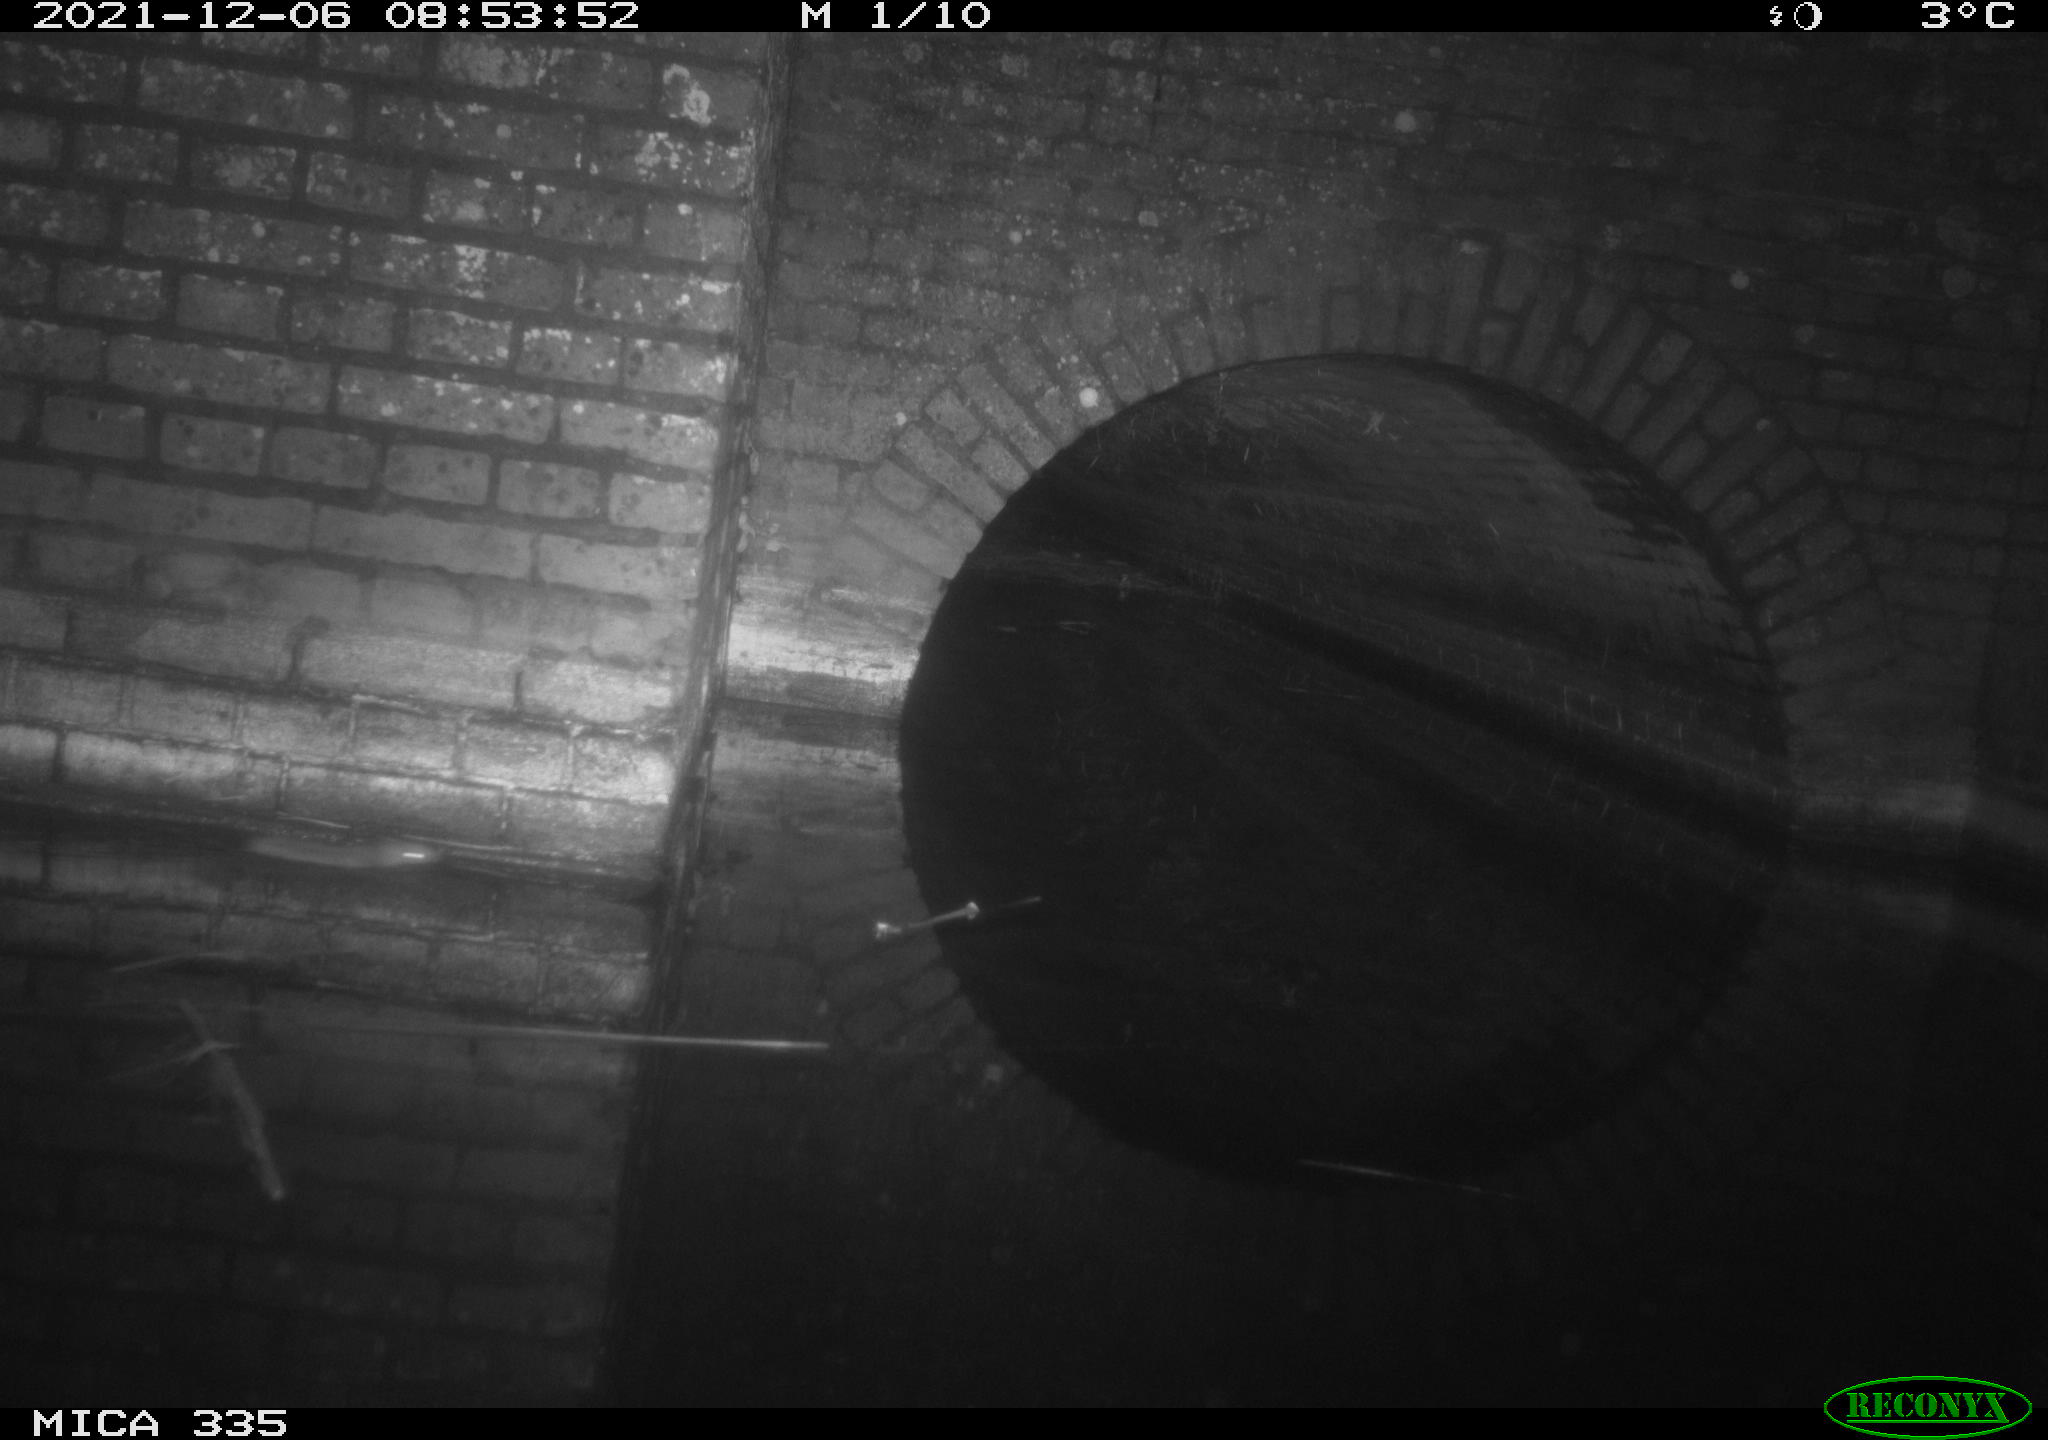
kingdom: Animalia
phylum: Chordata
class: Mammalia
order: Rodentia
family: Muridae
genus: Rattus
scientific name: Rattus norvegicus
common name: Brown rat
